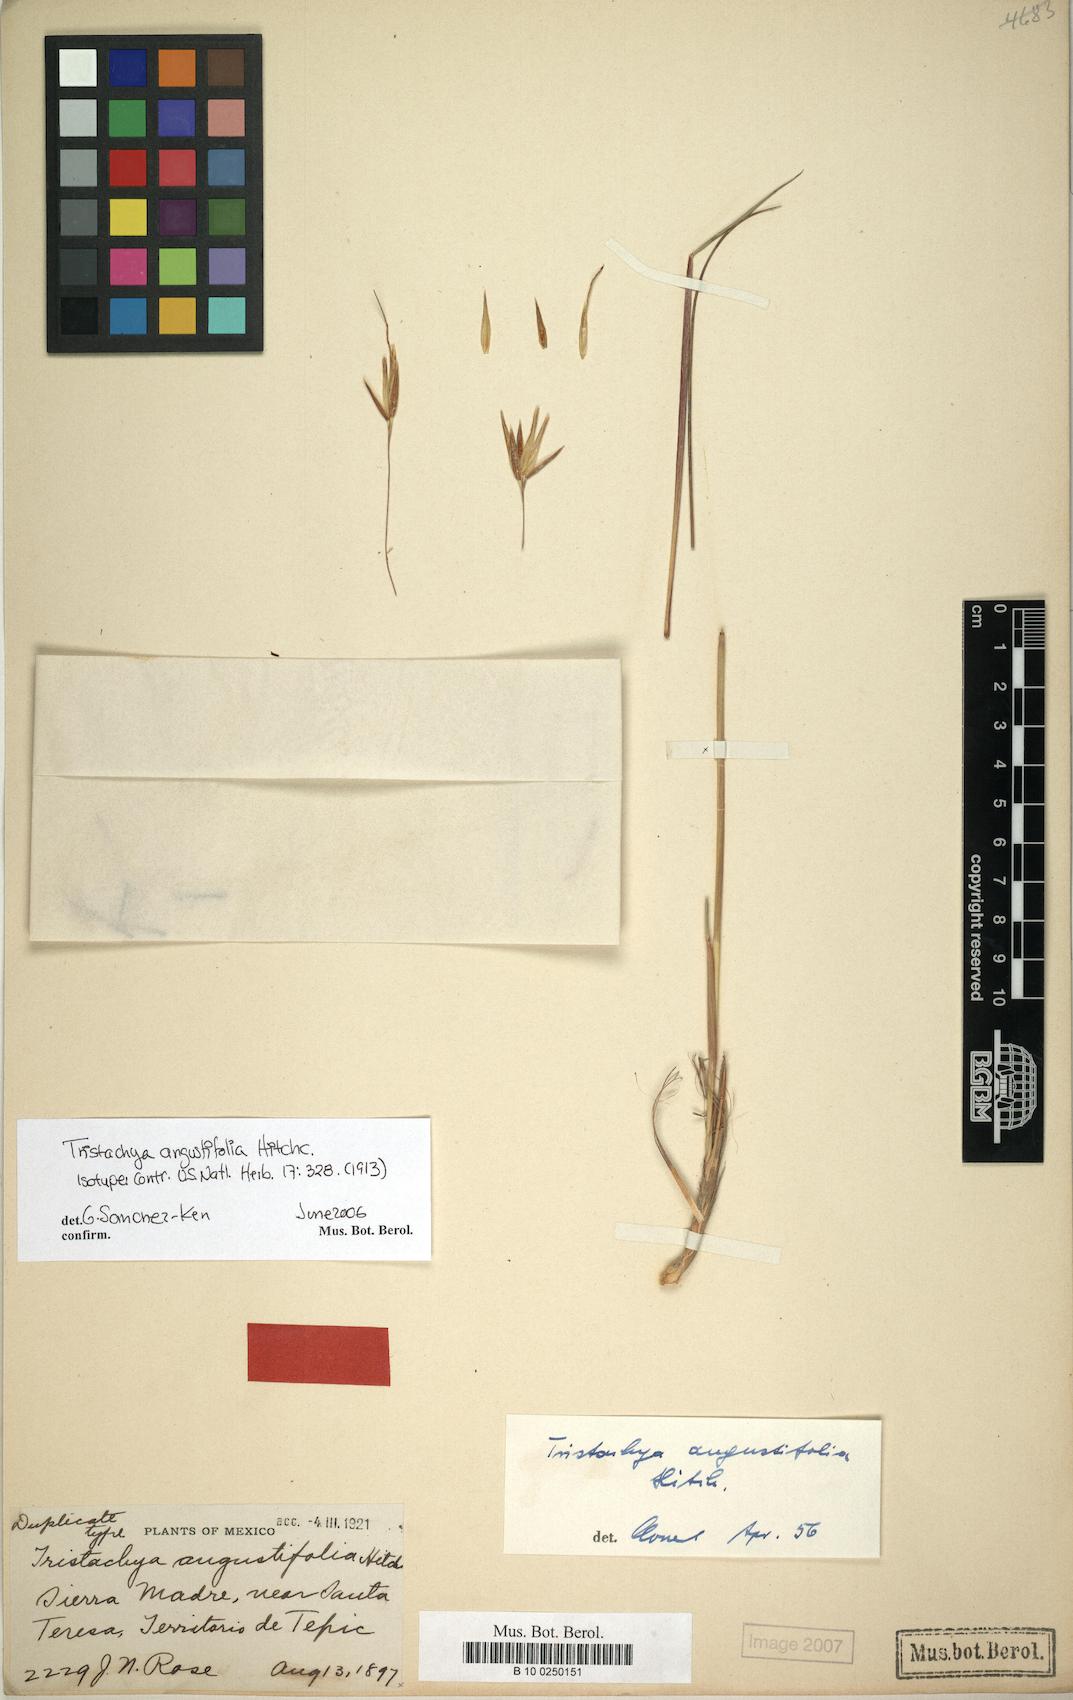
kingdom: Plantae
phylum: Tracheophyta
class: Liliopsida
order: Poales
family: Poaceae
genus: Tristachya
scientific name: Tristachya angustifolia
